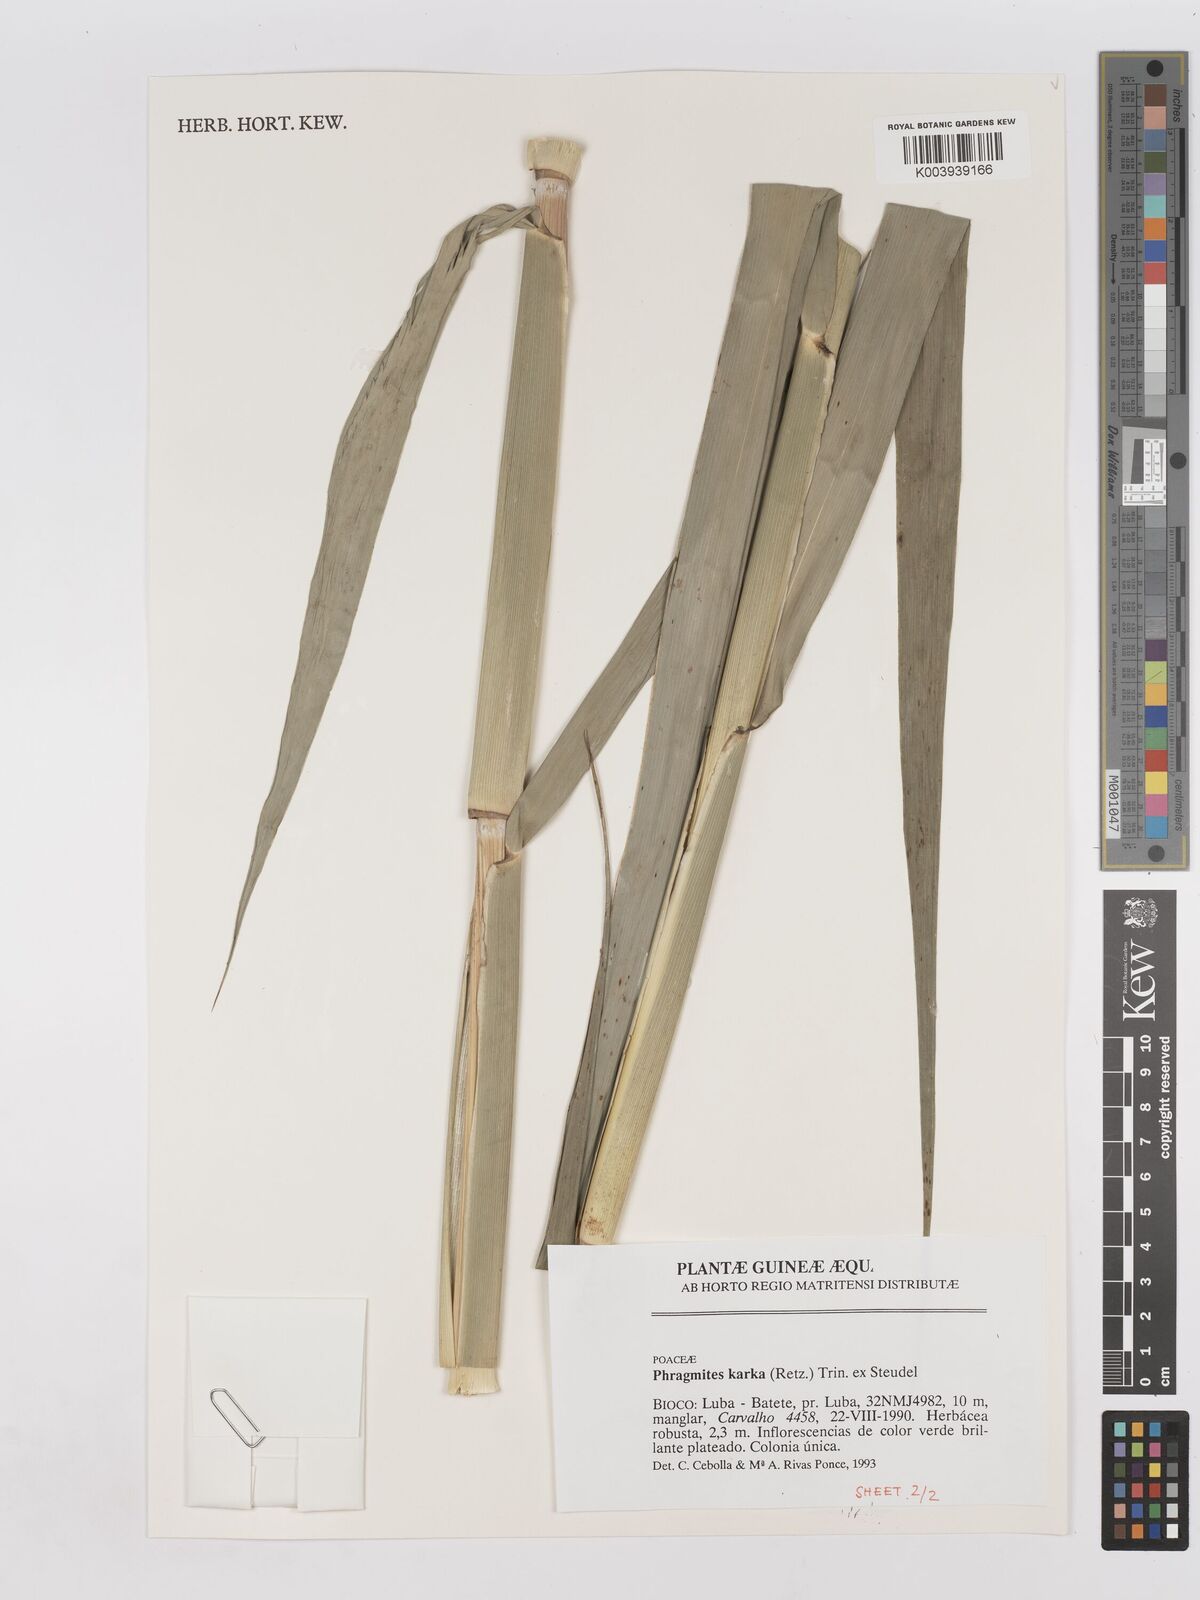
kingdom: Plantae
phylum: Tracheophyta
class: Liliopsida
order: Poales
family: Poaceae
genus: Phragmites
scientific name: Phragmites australis
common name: Common reed
